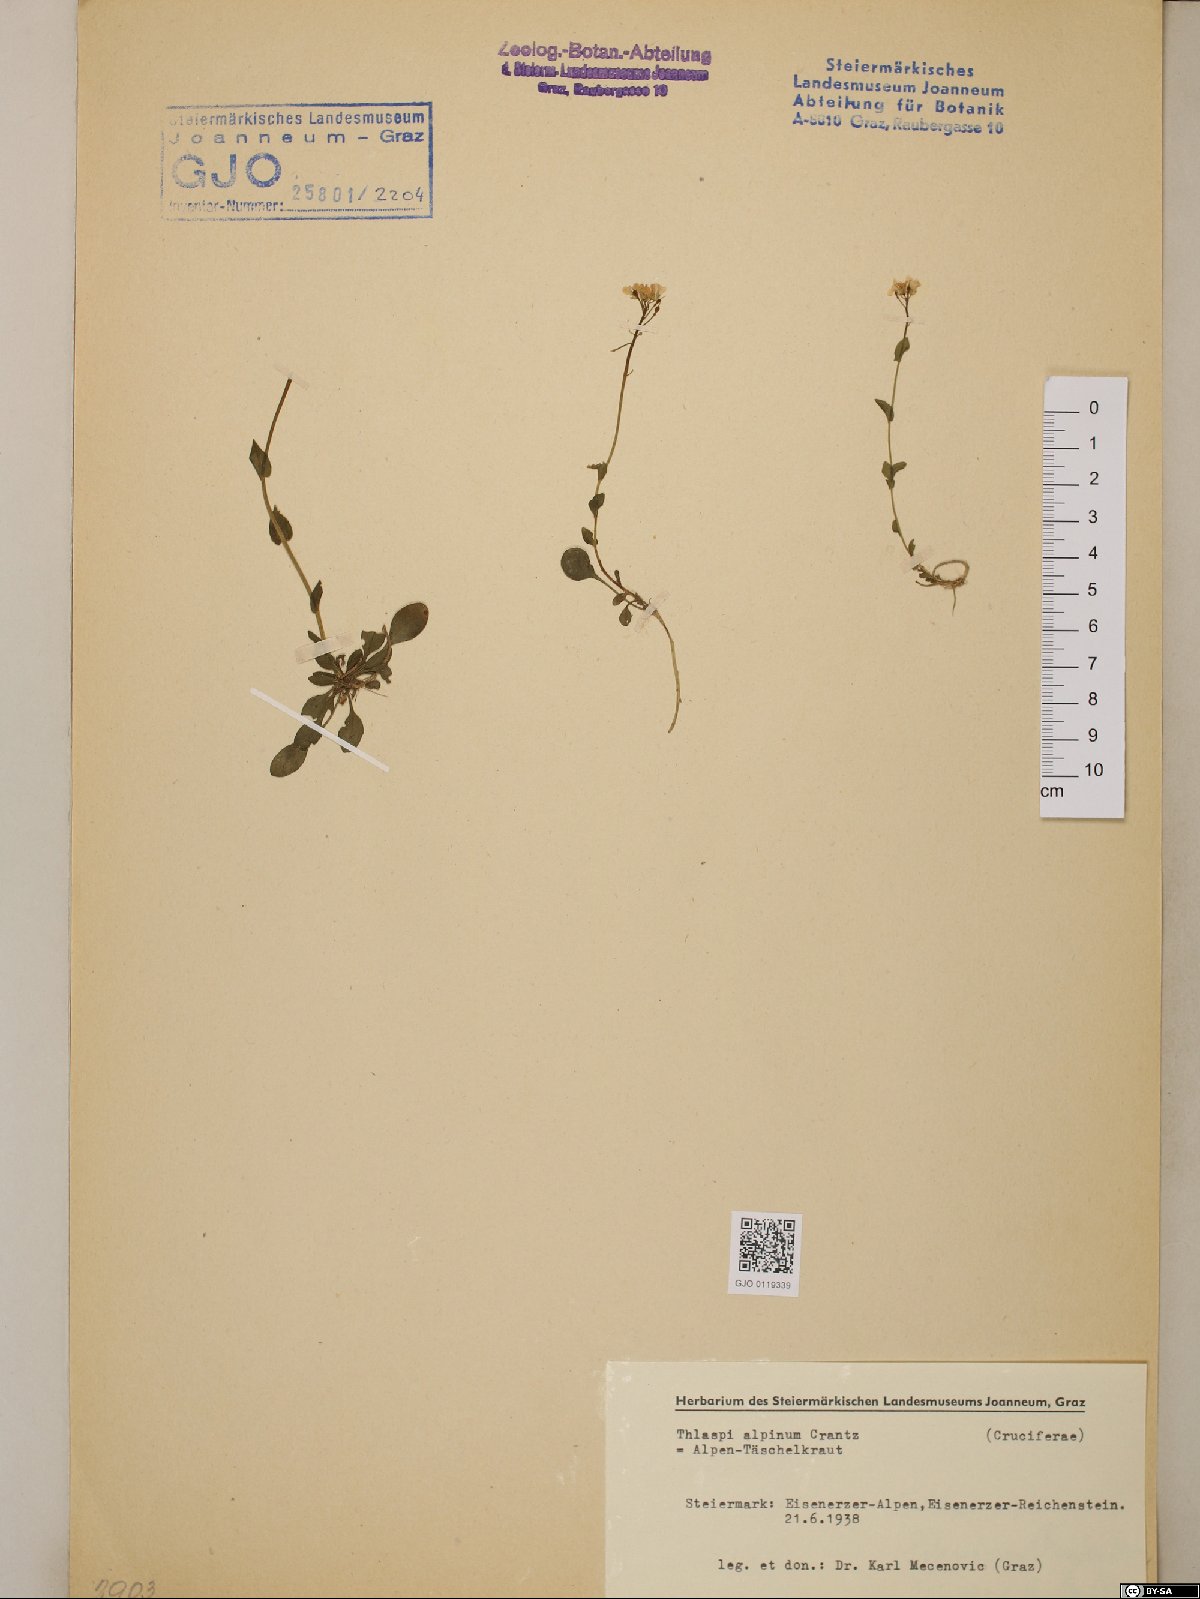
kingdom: Plantae
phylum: Tracheophyta
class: Magnoliopsida
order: Brassicales
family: Brassicaceae
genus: Noccaea
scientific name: Noccaea alpestris
